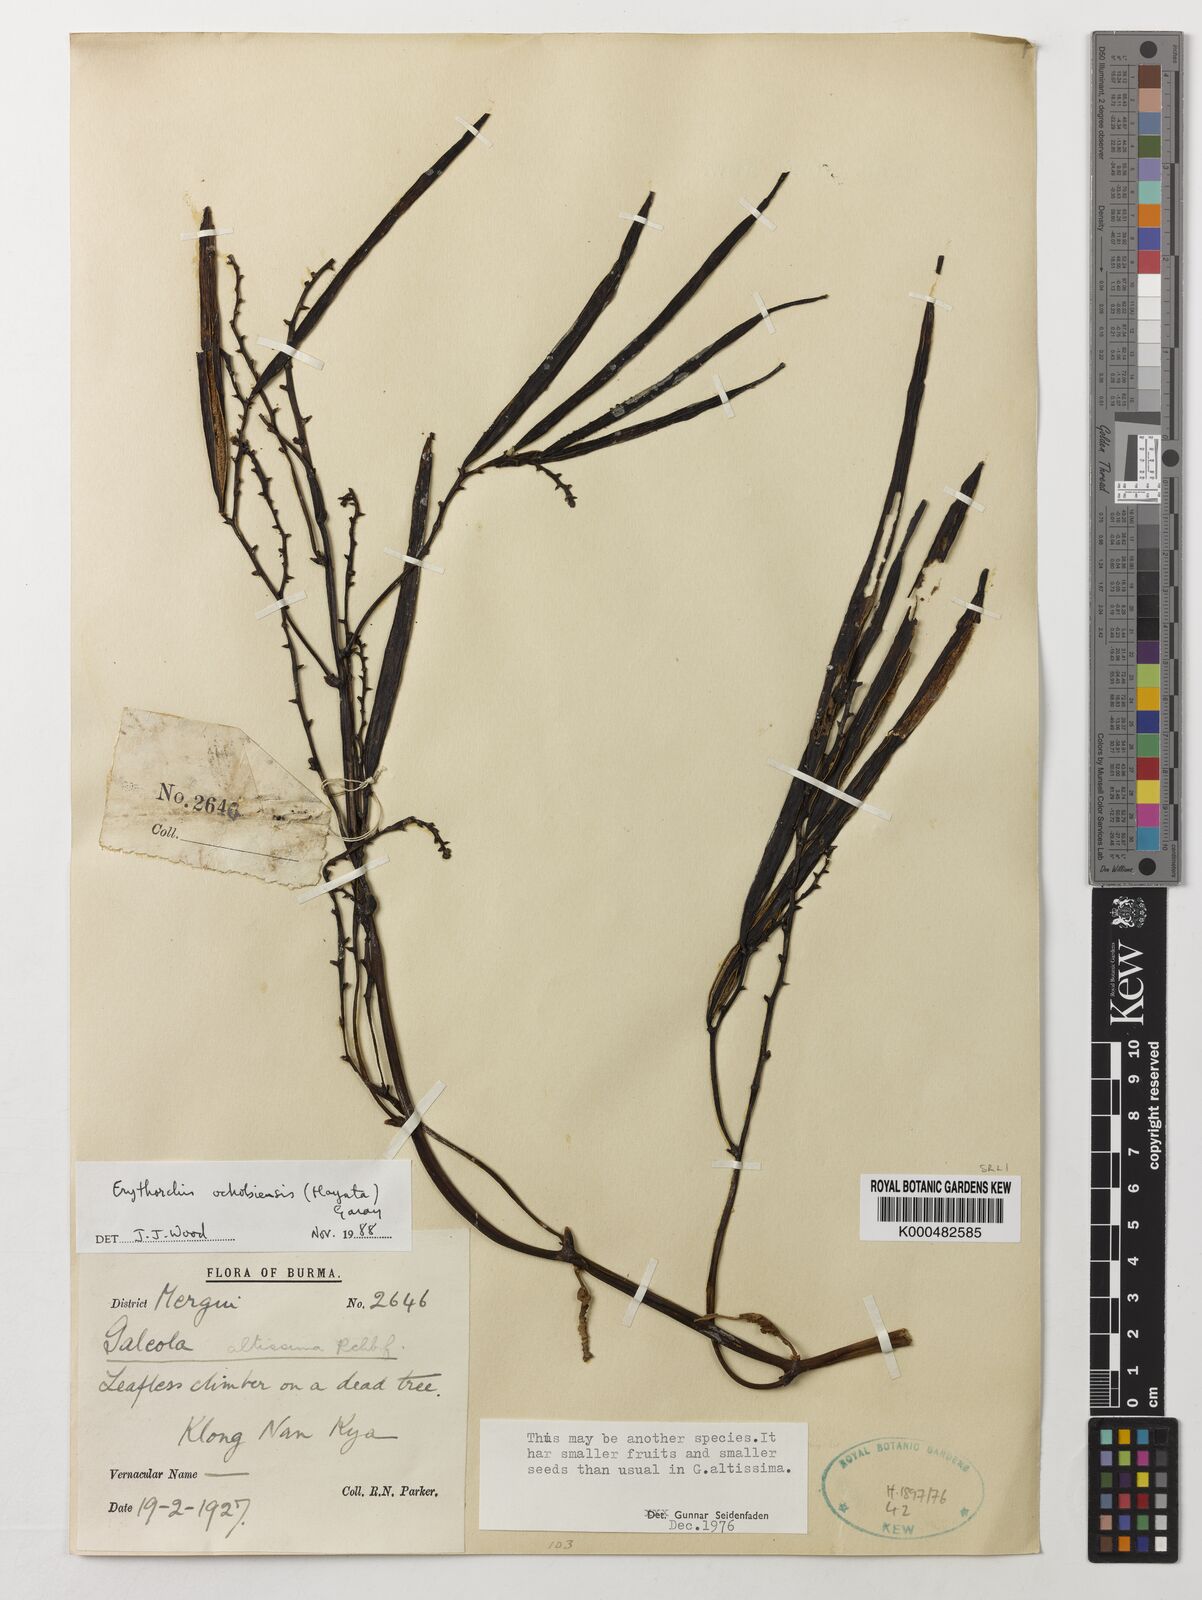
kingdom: Plantae
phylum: Tracheophyta
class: Liliopsida
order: Asparagales
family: Orchidaceae
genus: Erythrorchis
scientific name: Erythrorchis altissima
